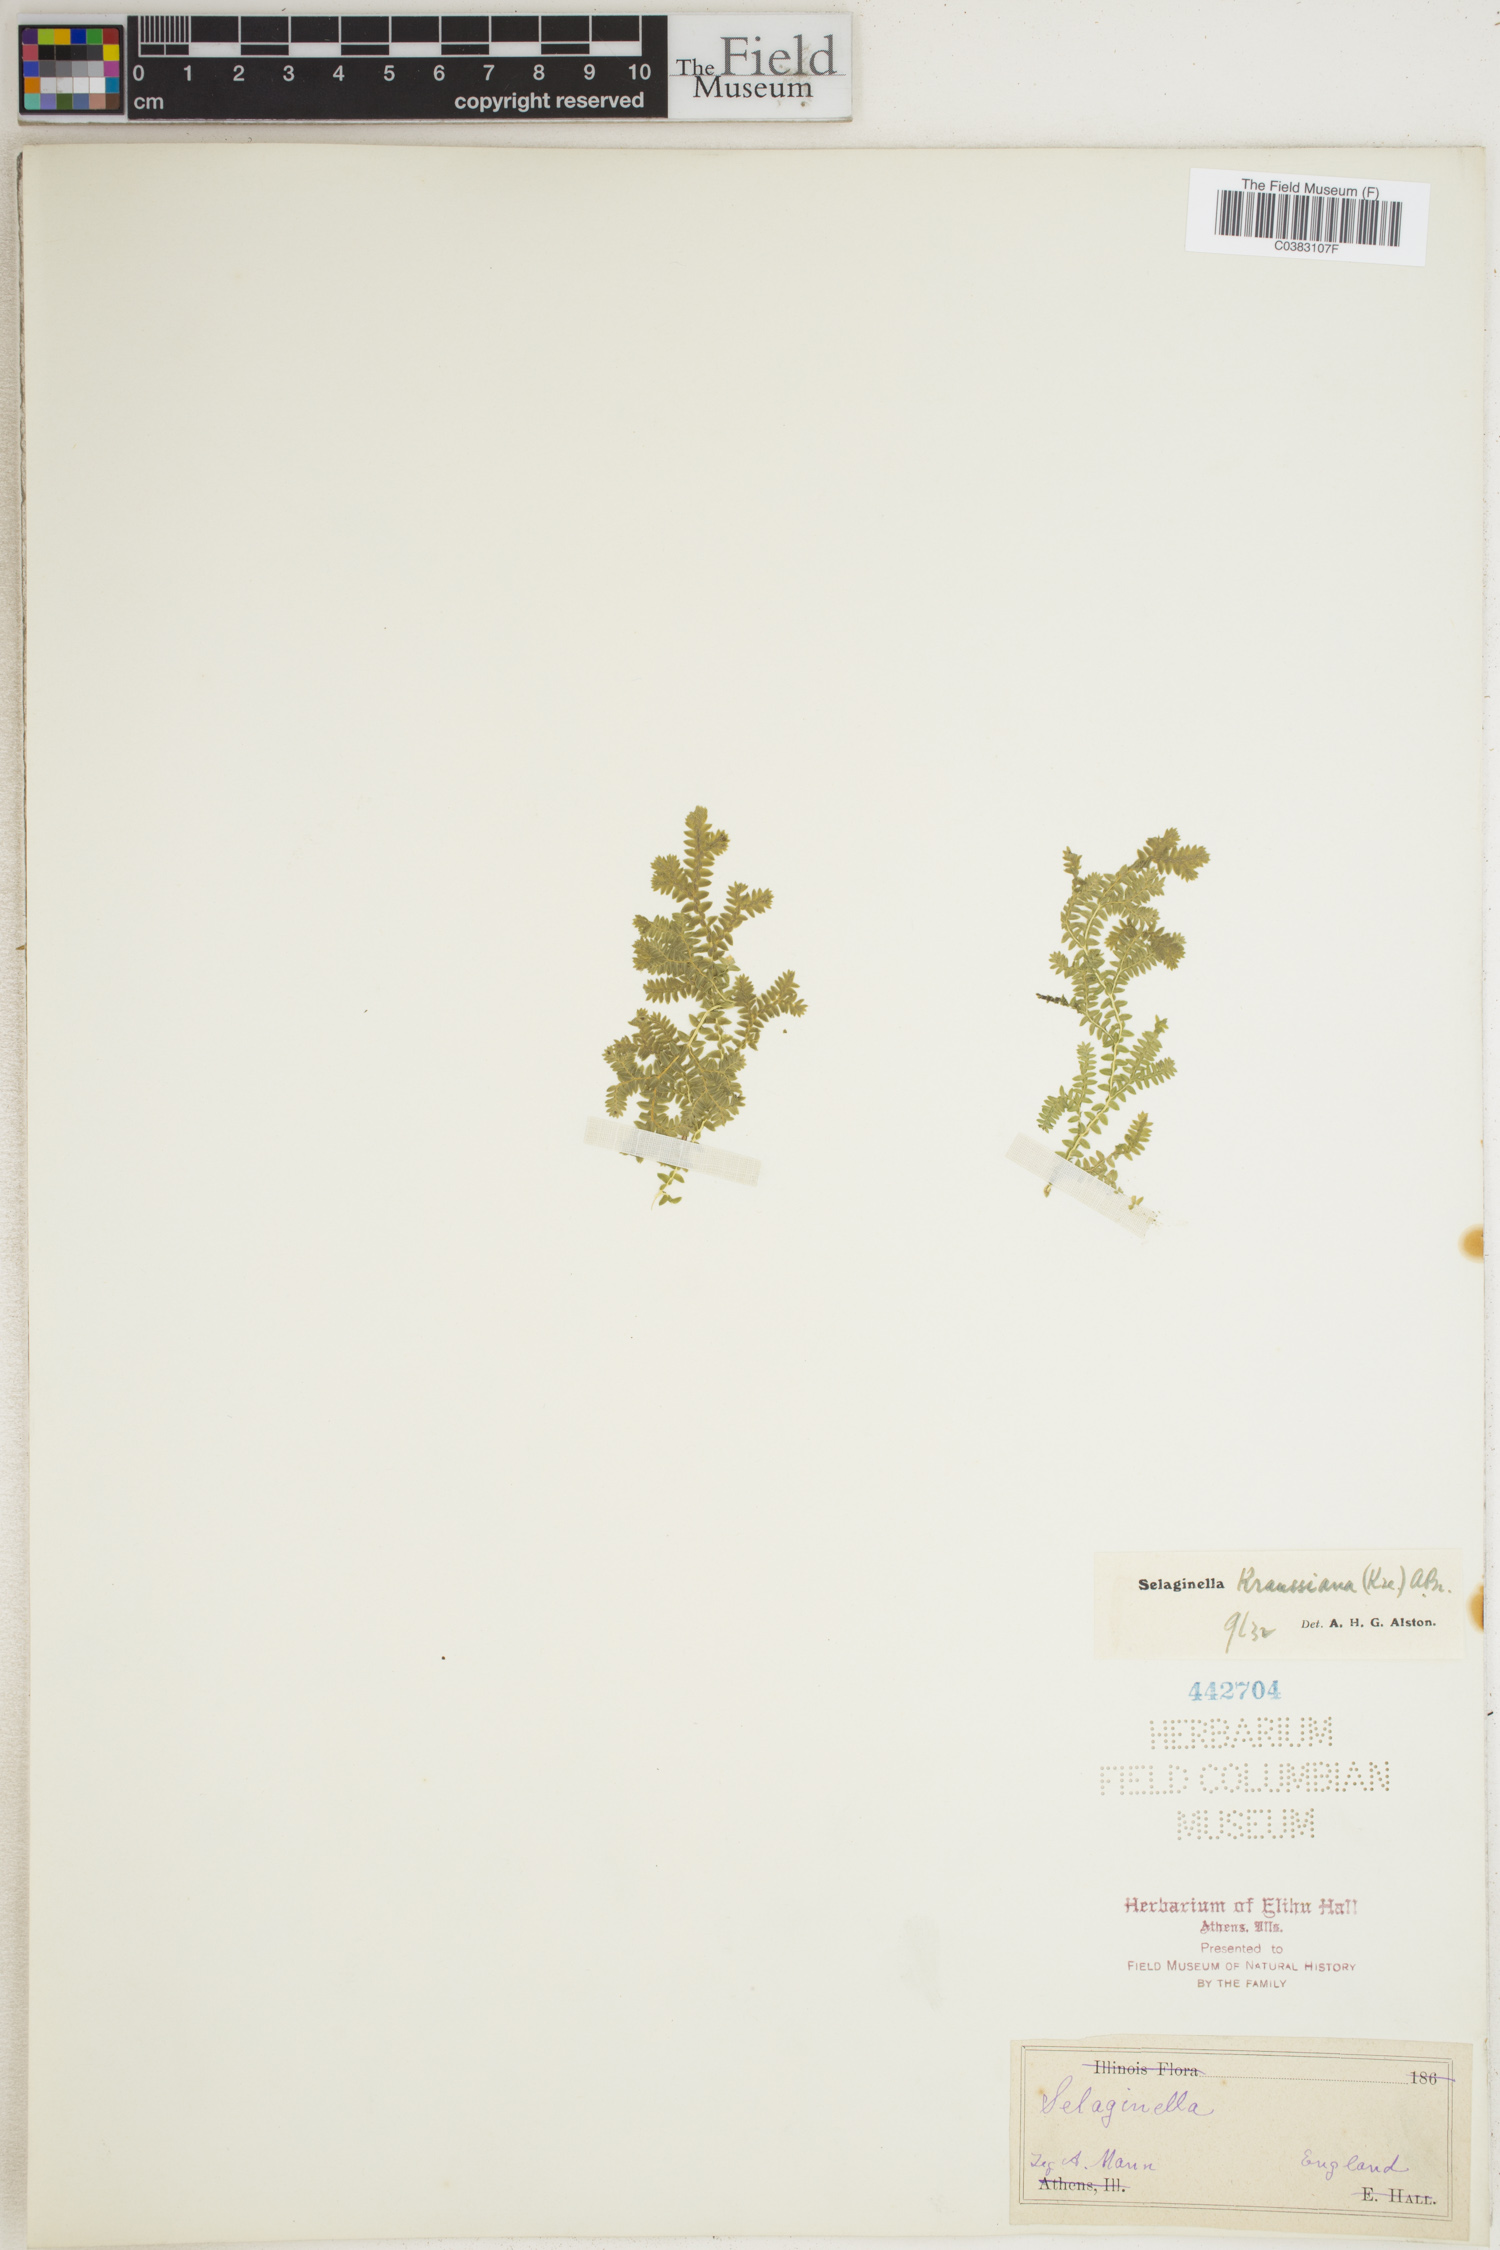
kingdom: Plantae
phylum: Tracheophyta
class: Lycopodiopsida
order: Selaginellales
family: Selaginellaceae
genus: Selaginella
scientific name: Selaginella kraussiana
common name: Krauss' spikemoss
